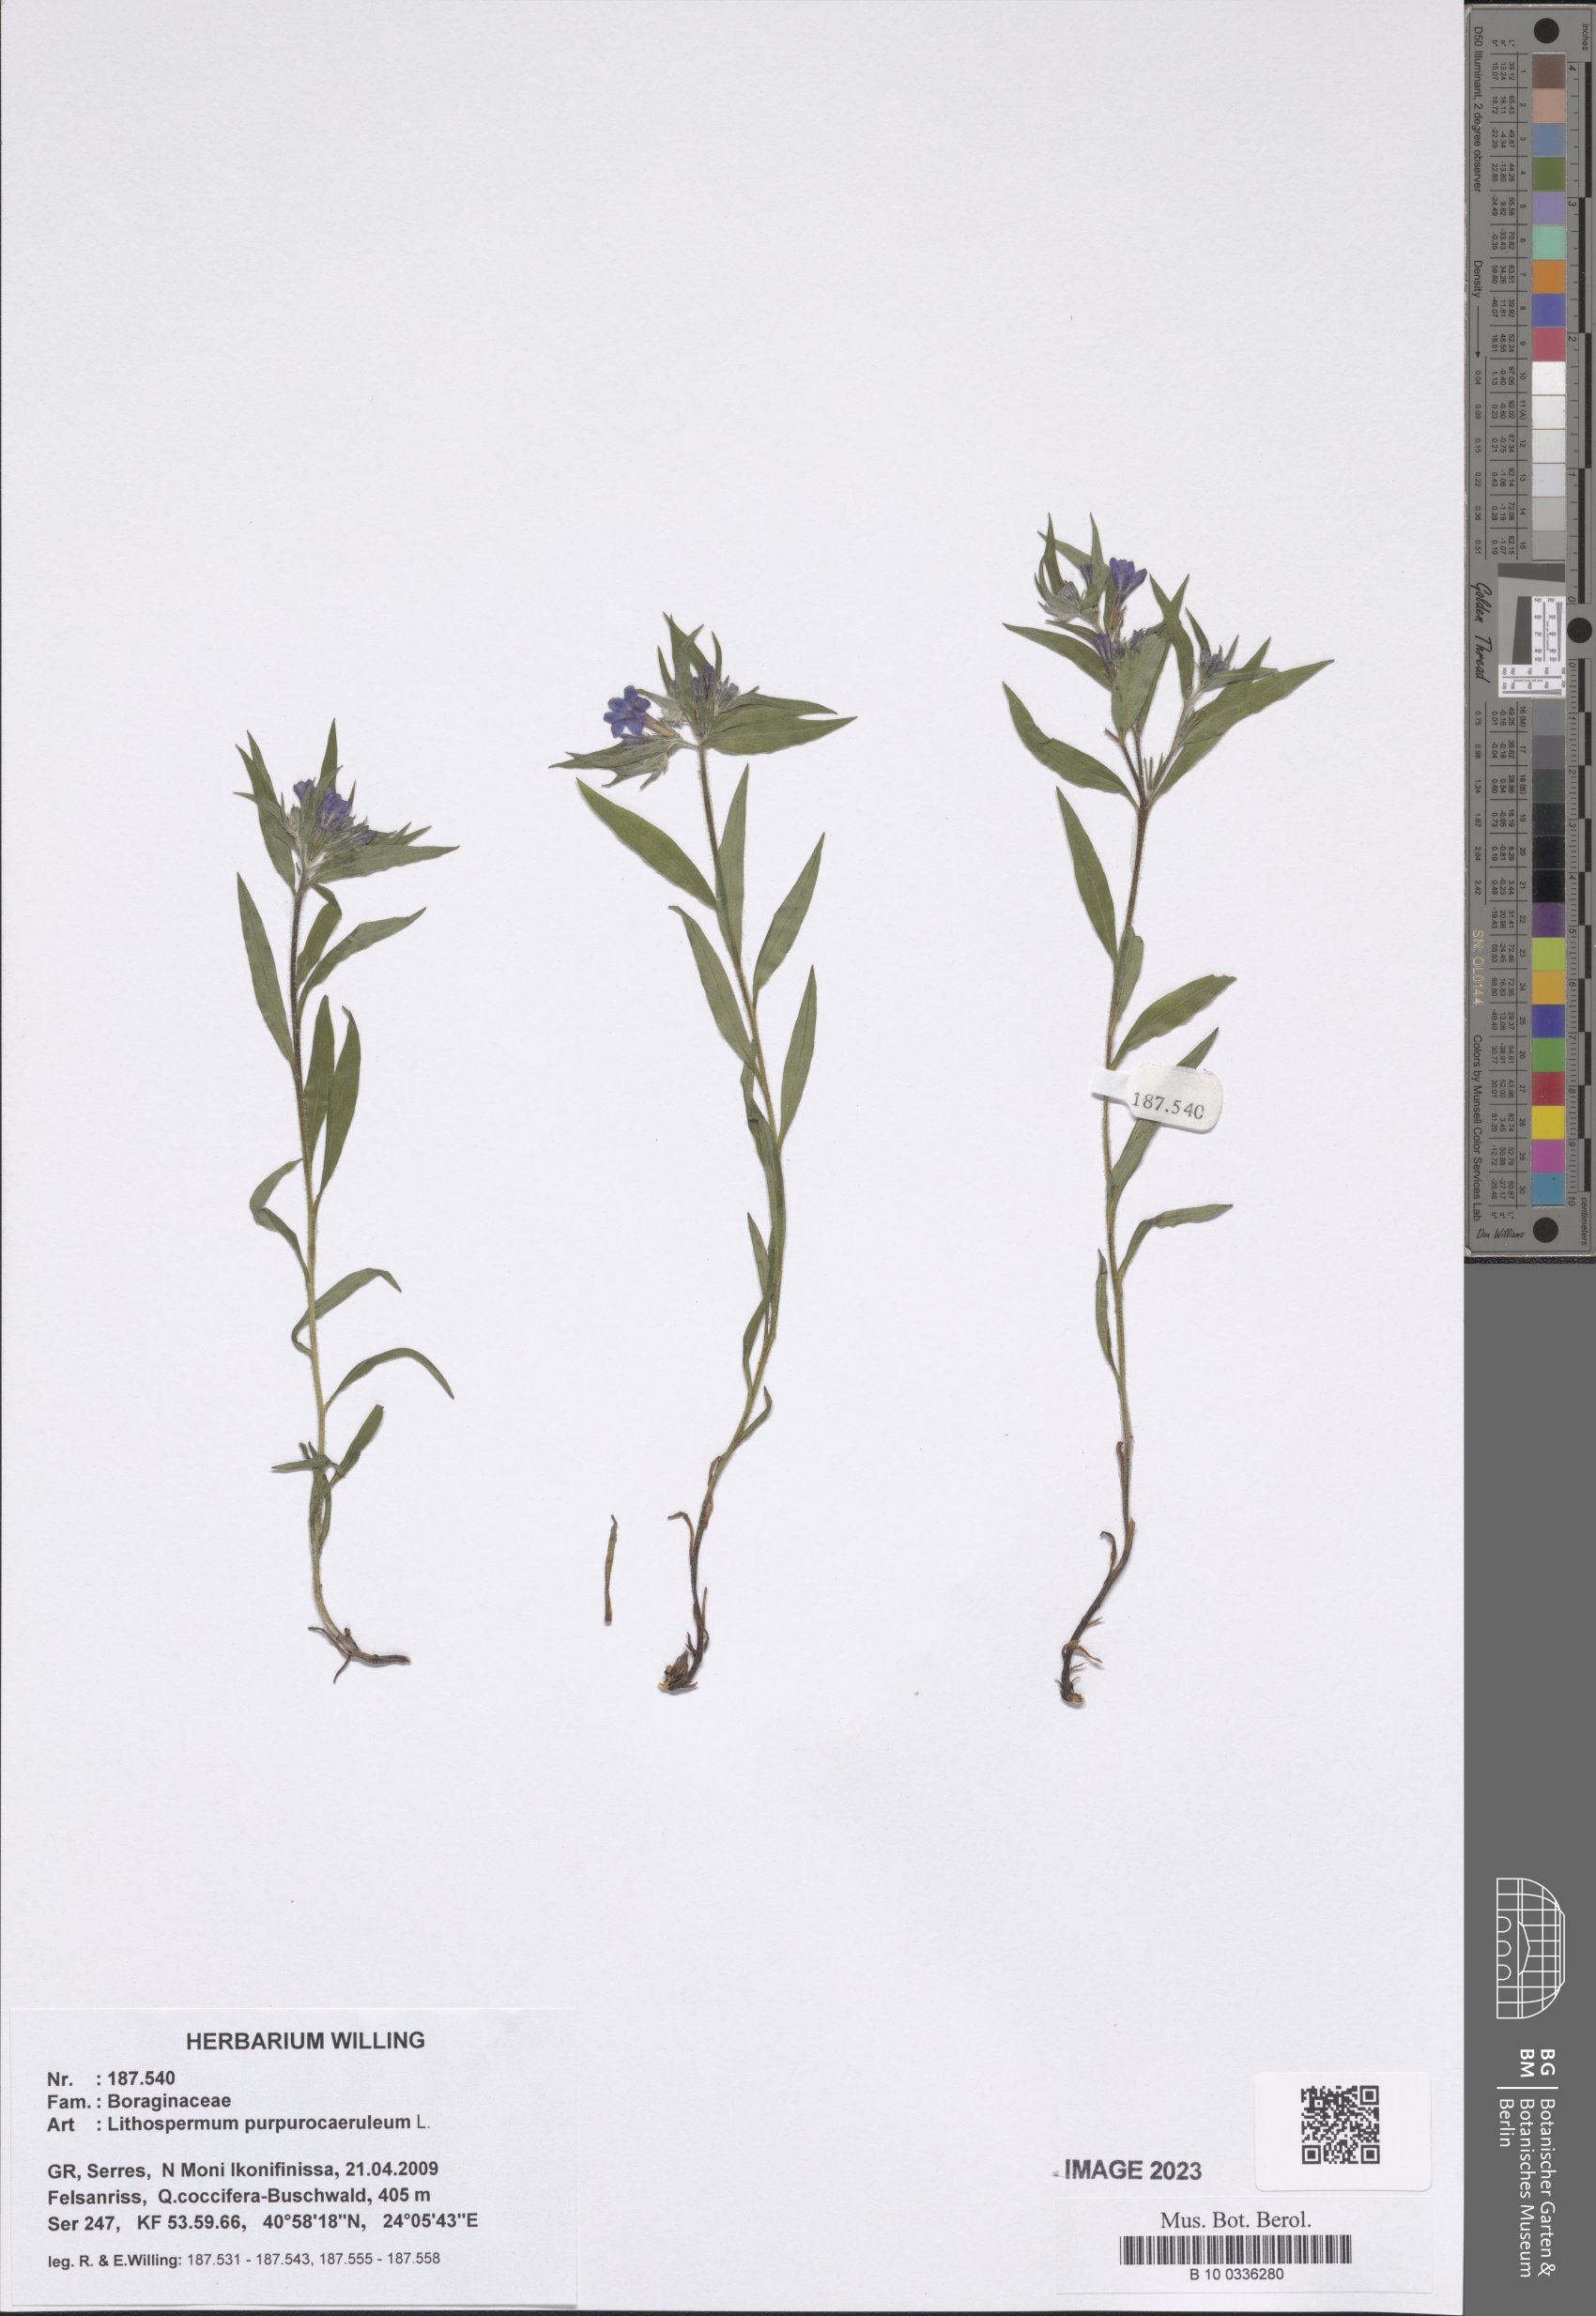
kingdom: Plantae
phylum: Tracheophyta
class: Magnoliopsida
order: Boraginales
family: Boraginaceae
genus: Aegonychon
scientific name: Aegonychon purpurocaeruleum
